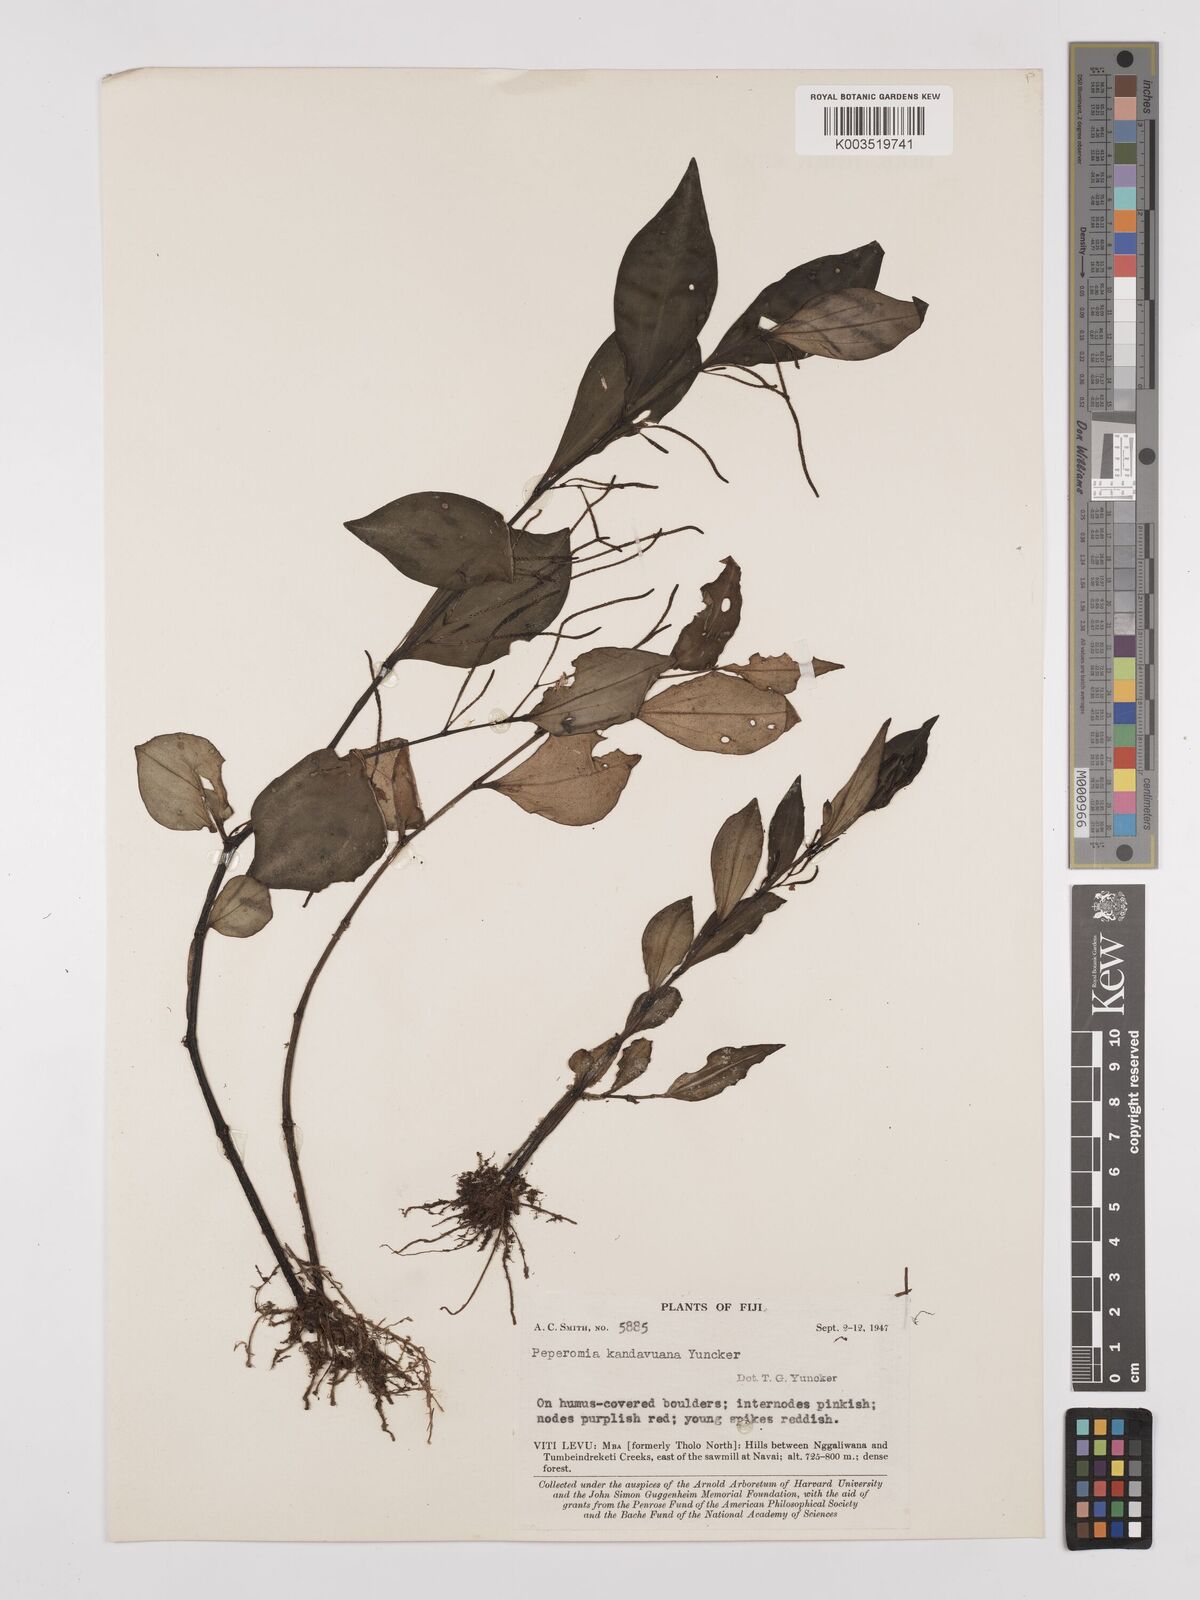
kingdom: Plantae
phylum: Tracheophyta
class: Magnoliopsida
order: Piperales
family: Piperaceae
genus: Peperomia
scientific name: Peperomia lasiostigma
